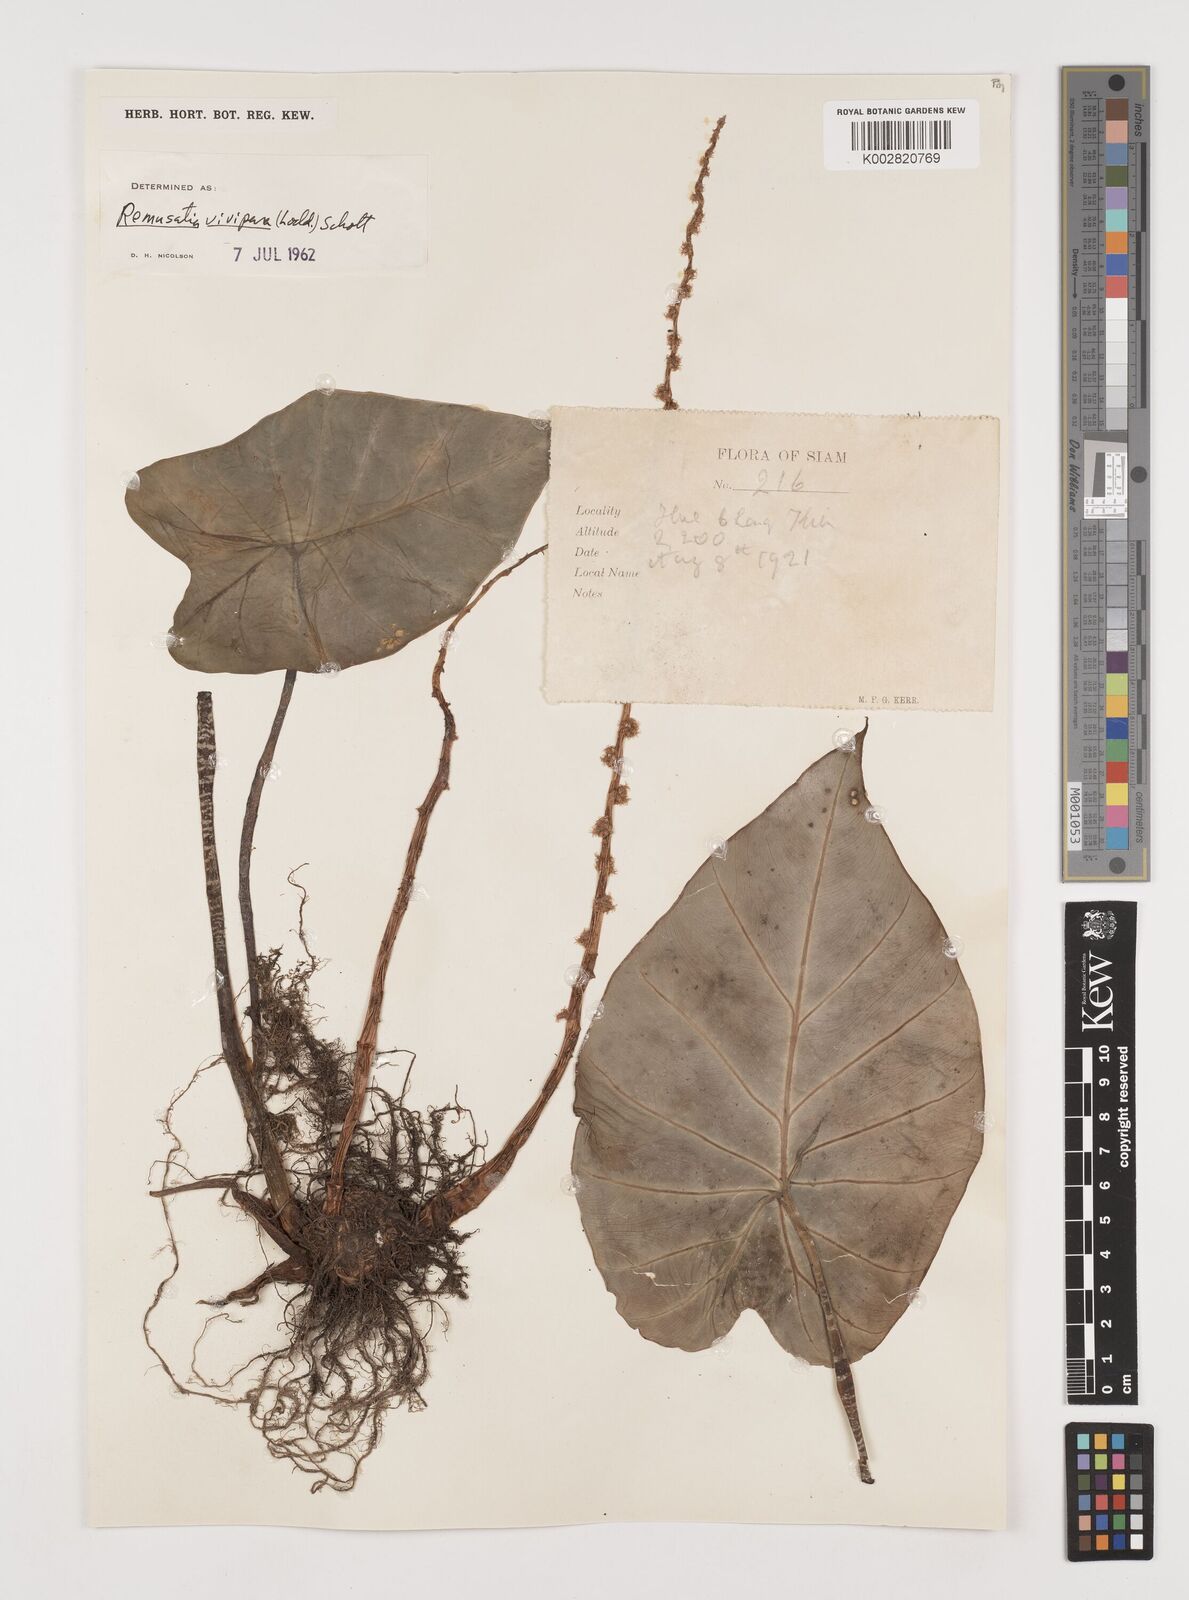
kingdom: Plantae
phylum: Tracheophyta
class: Liliopsida
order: Alismatales
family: Araceae
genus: Remusatia
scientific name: Remusatia vivipara
